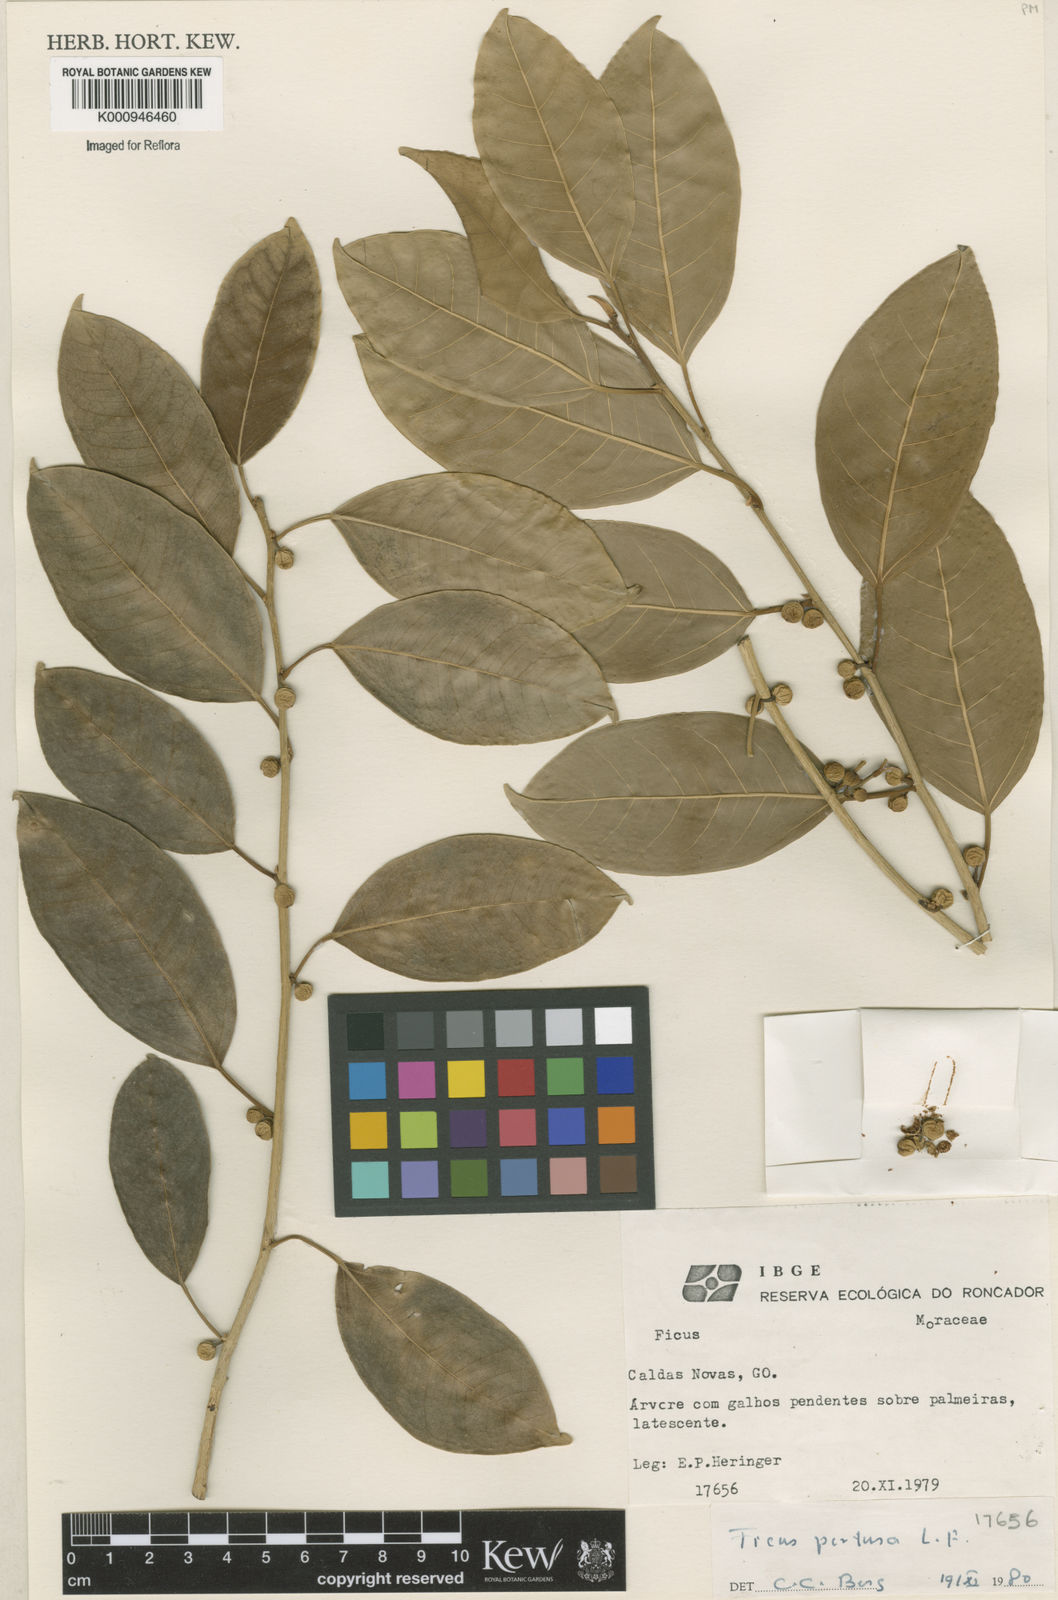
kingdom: Plantae
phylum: Tracheophyta
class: Magnoliopsida
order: Rosales
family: Moraceae
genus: Ficus
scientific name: Ficus pertusa
